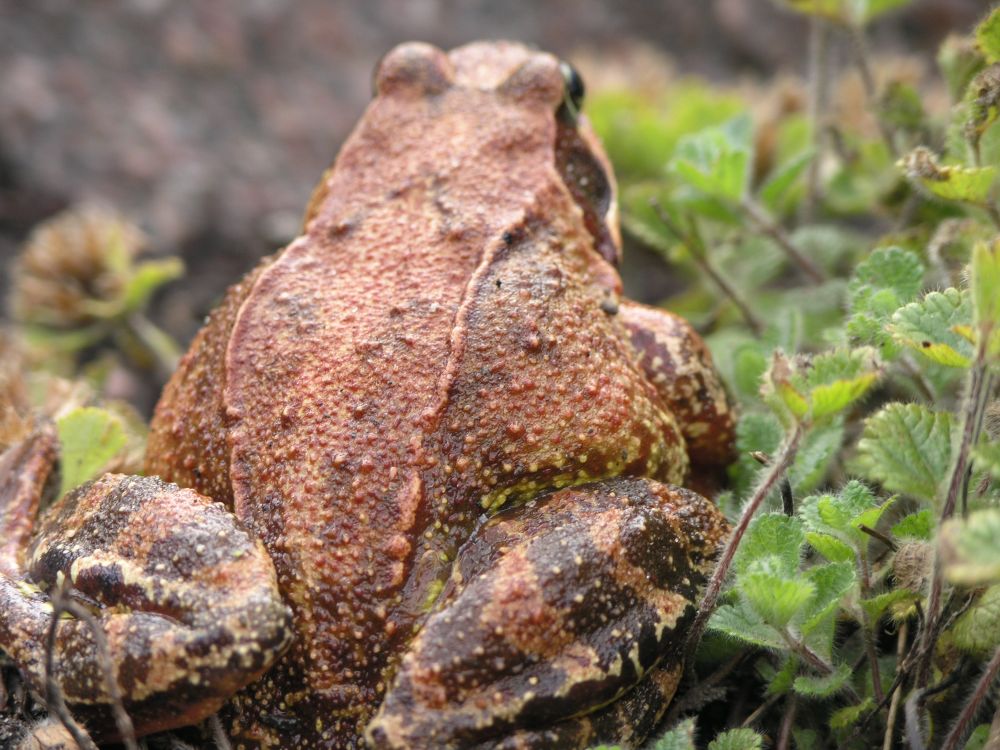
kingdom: Animalia
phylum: Chordata
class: Amphibia
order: Anura
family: Ranidae
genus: Rana
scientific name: Rana temporaria
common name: Common frog
